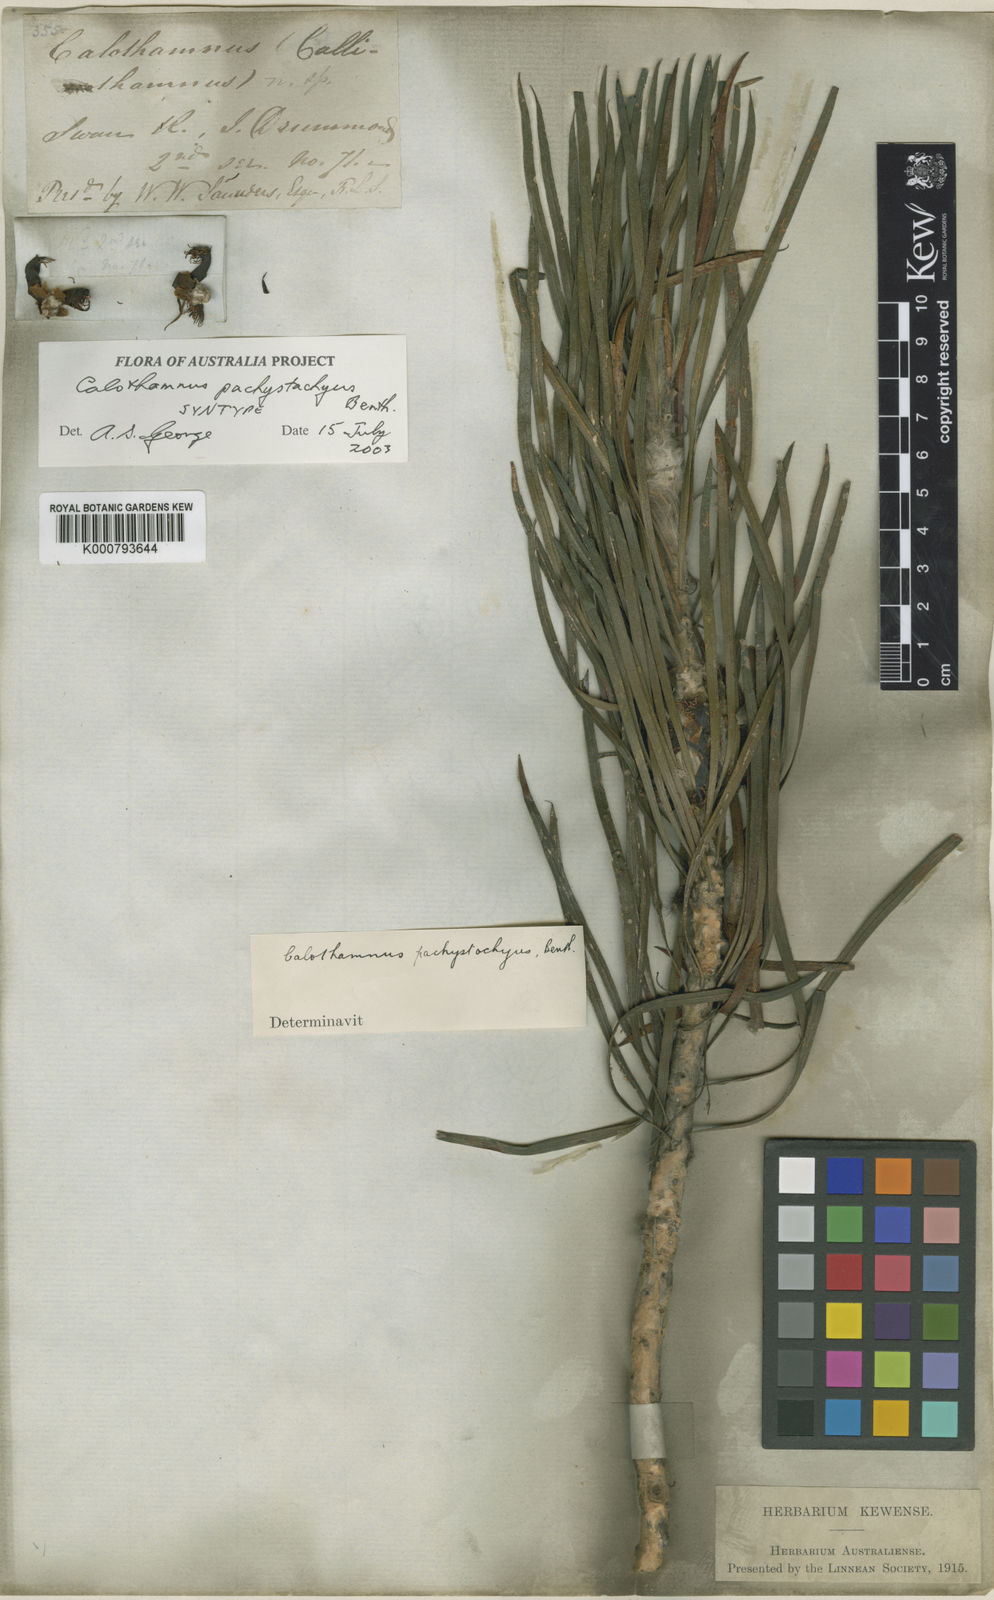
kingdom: Plantae
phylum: Tracheophyta
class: Magnoliopsida
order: Myrtales
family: Myrtaceae
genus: Melaleuca
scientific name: Melaleuca pachystachya
